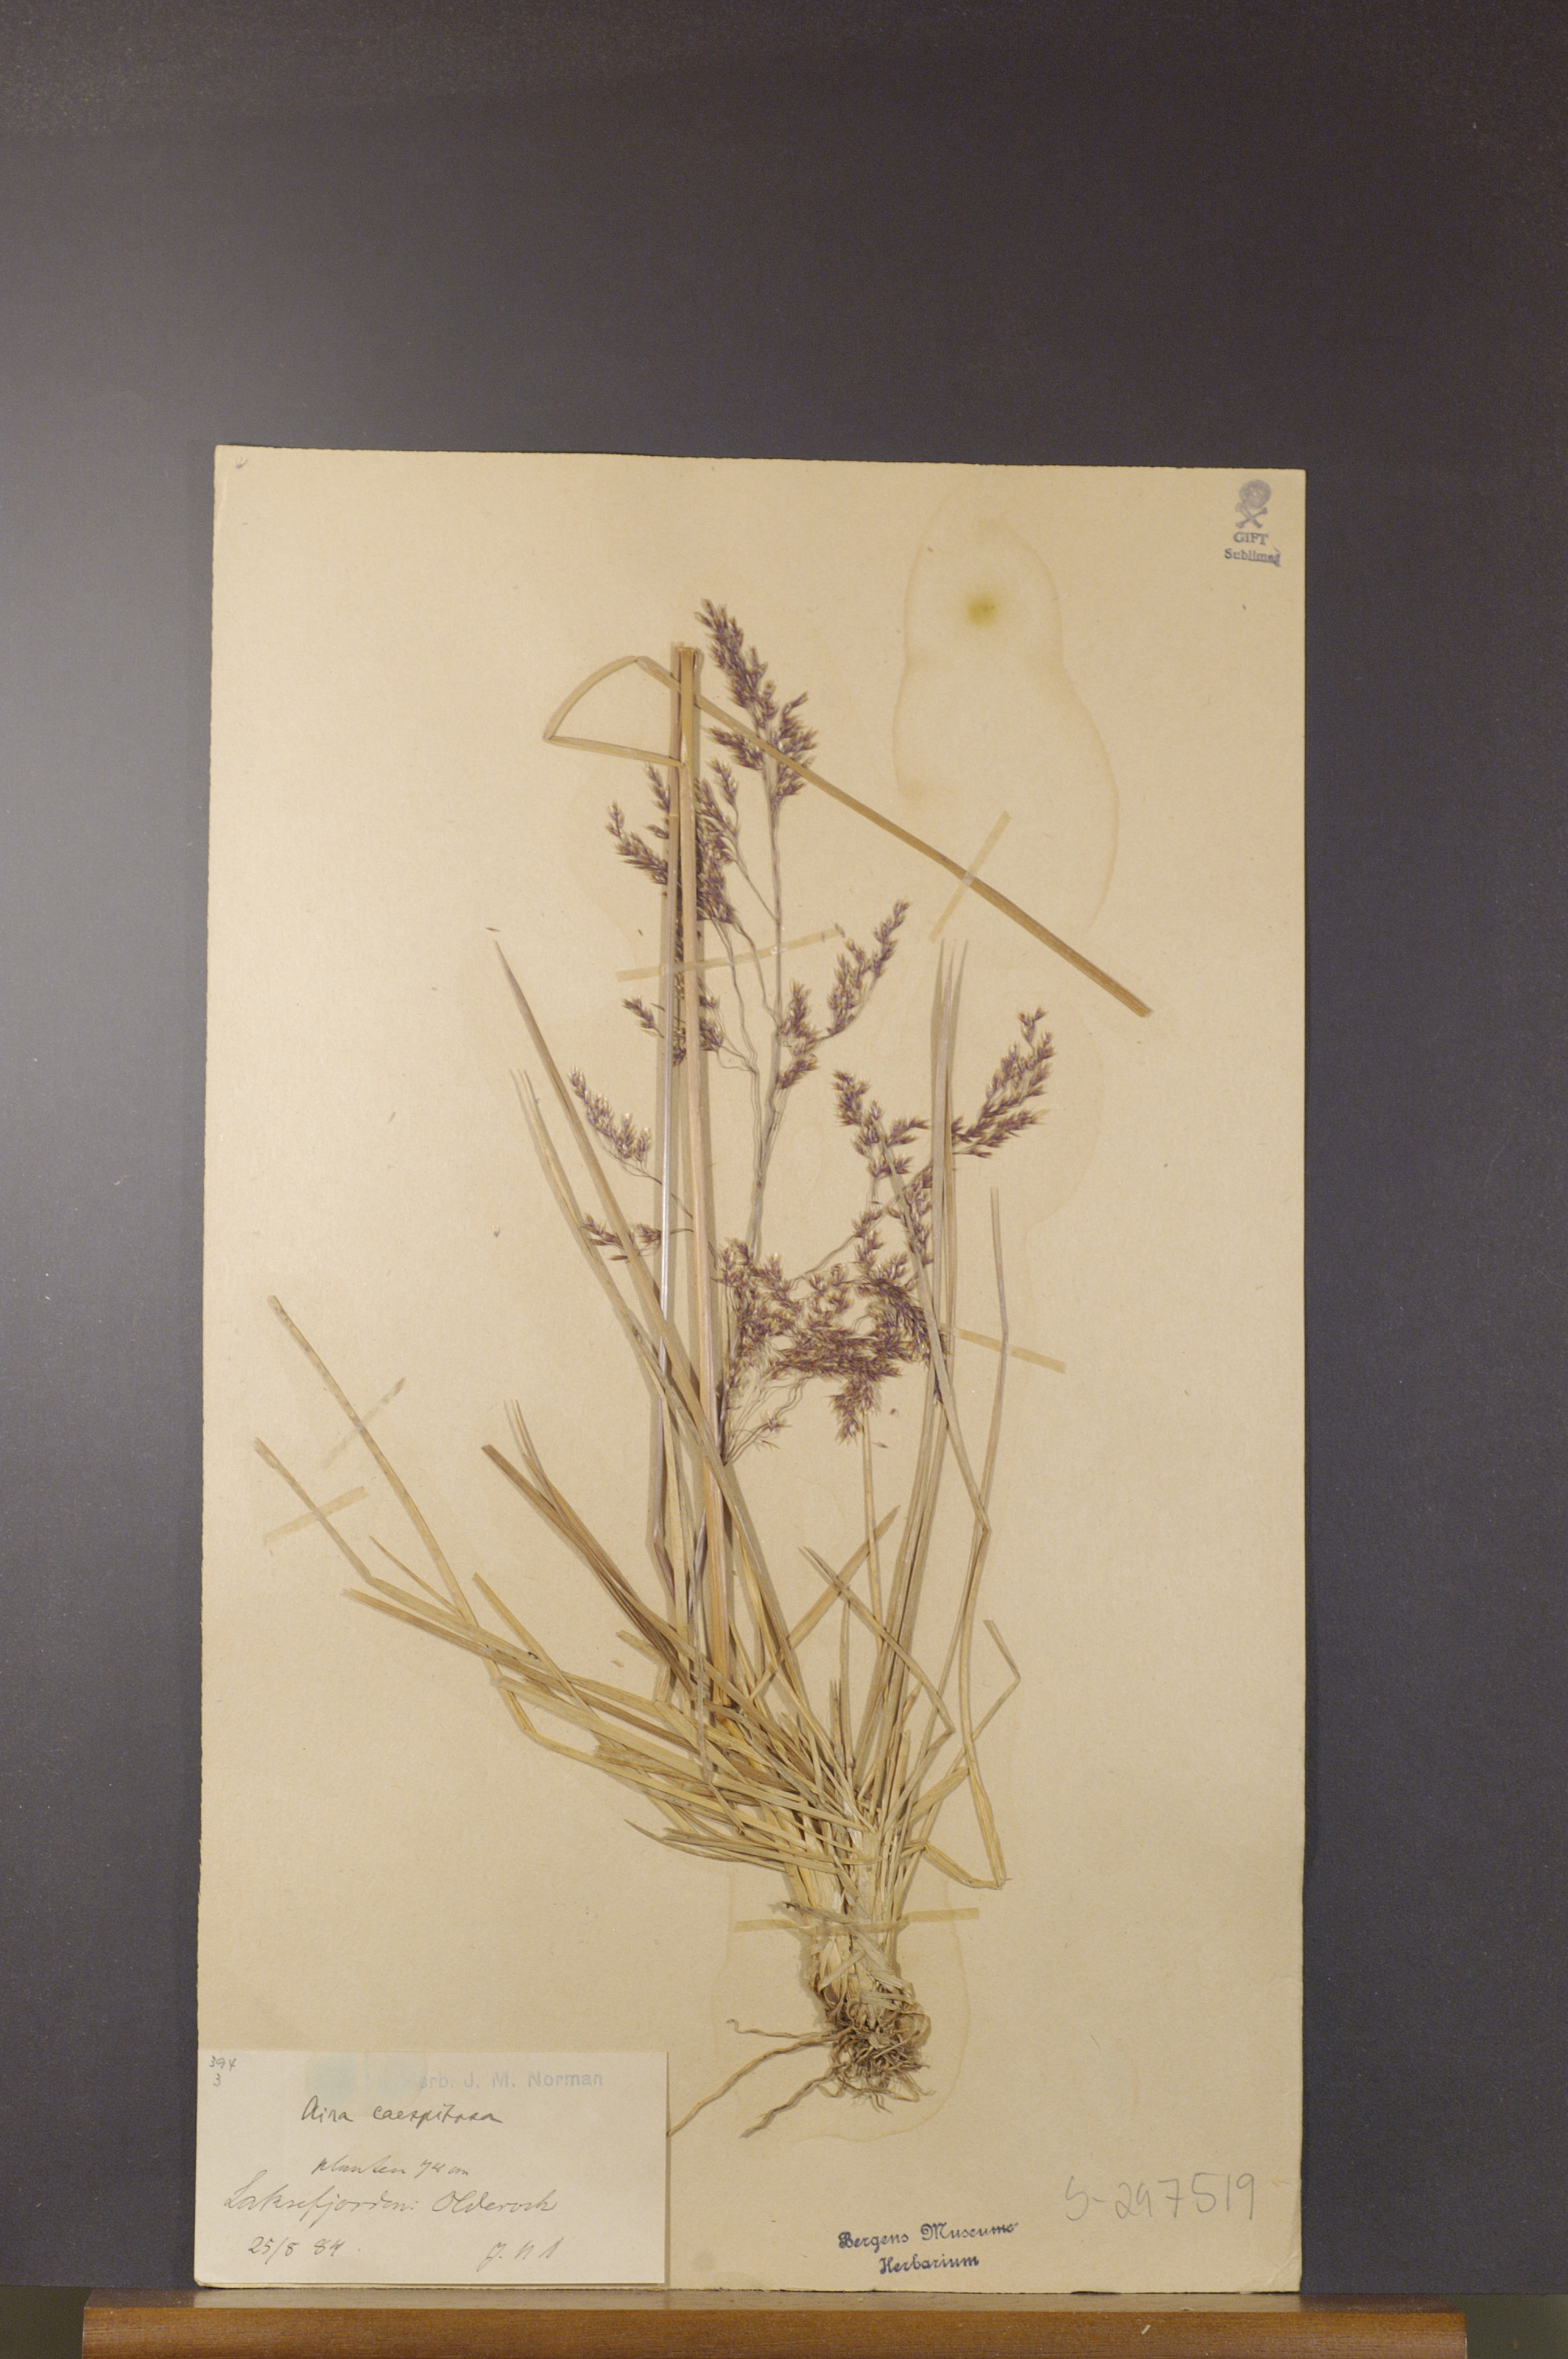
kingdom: Plantae
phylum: Tracheophyta
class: Liliopsida
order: Poales
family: Poaceae
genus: Deschampsia
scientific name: Deschampsia cespitosa
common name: Tufted hair-grass
